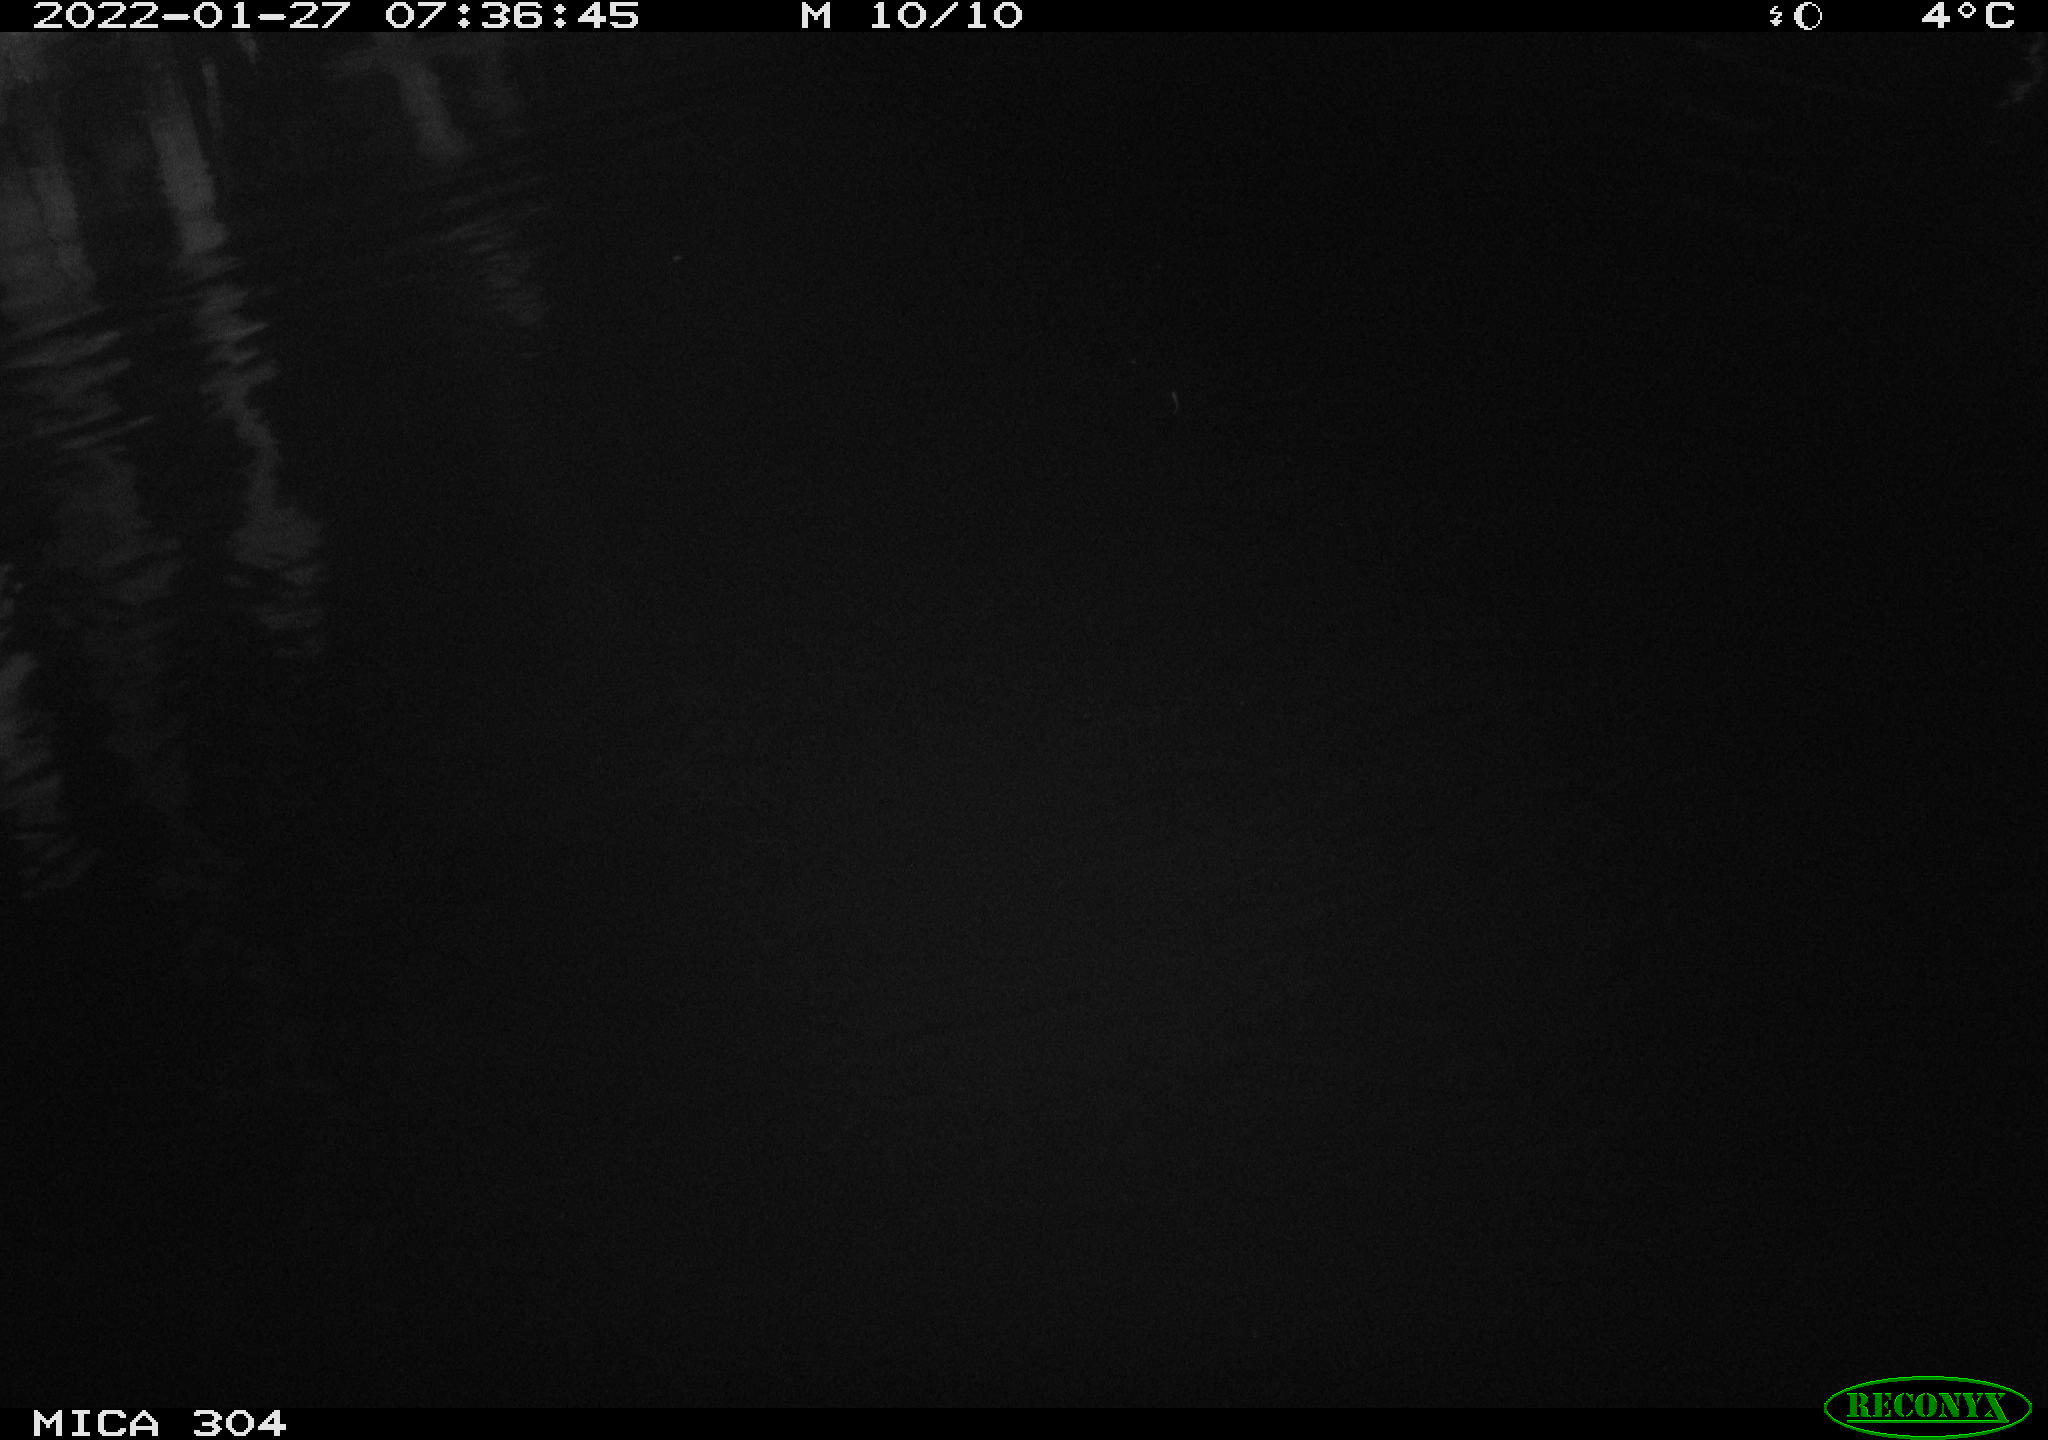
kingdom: Animalia
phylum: Chordata
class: Aves
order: Anseriformes
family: Anatidae
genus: Anas
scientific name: Anas
